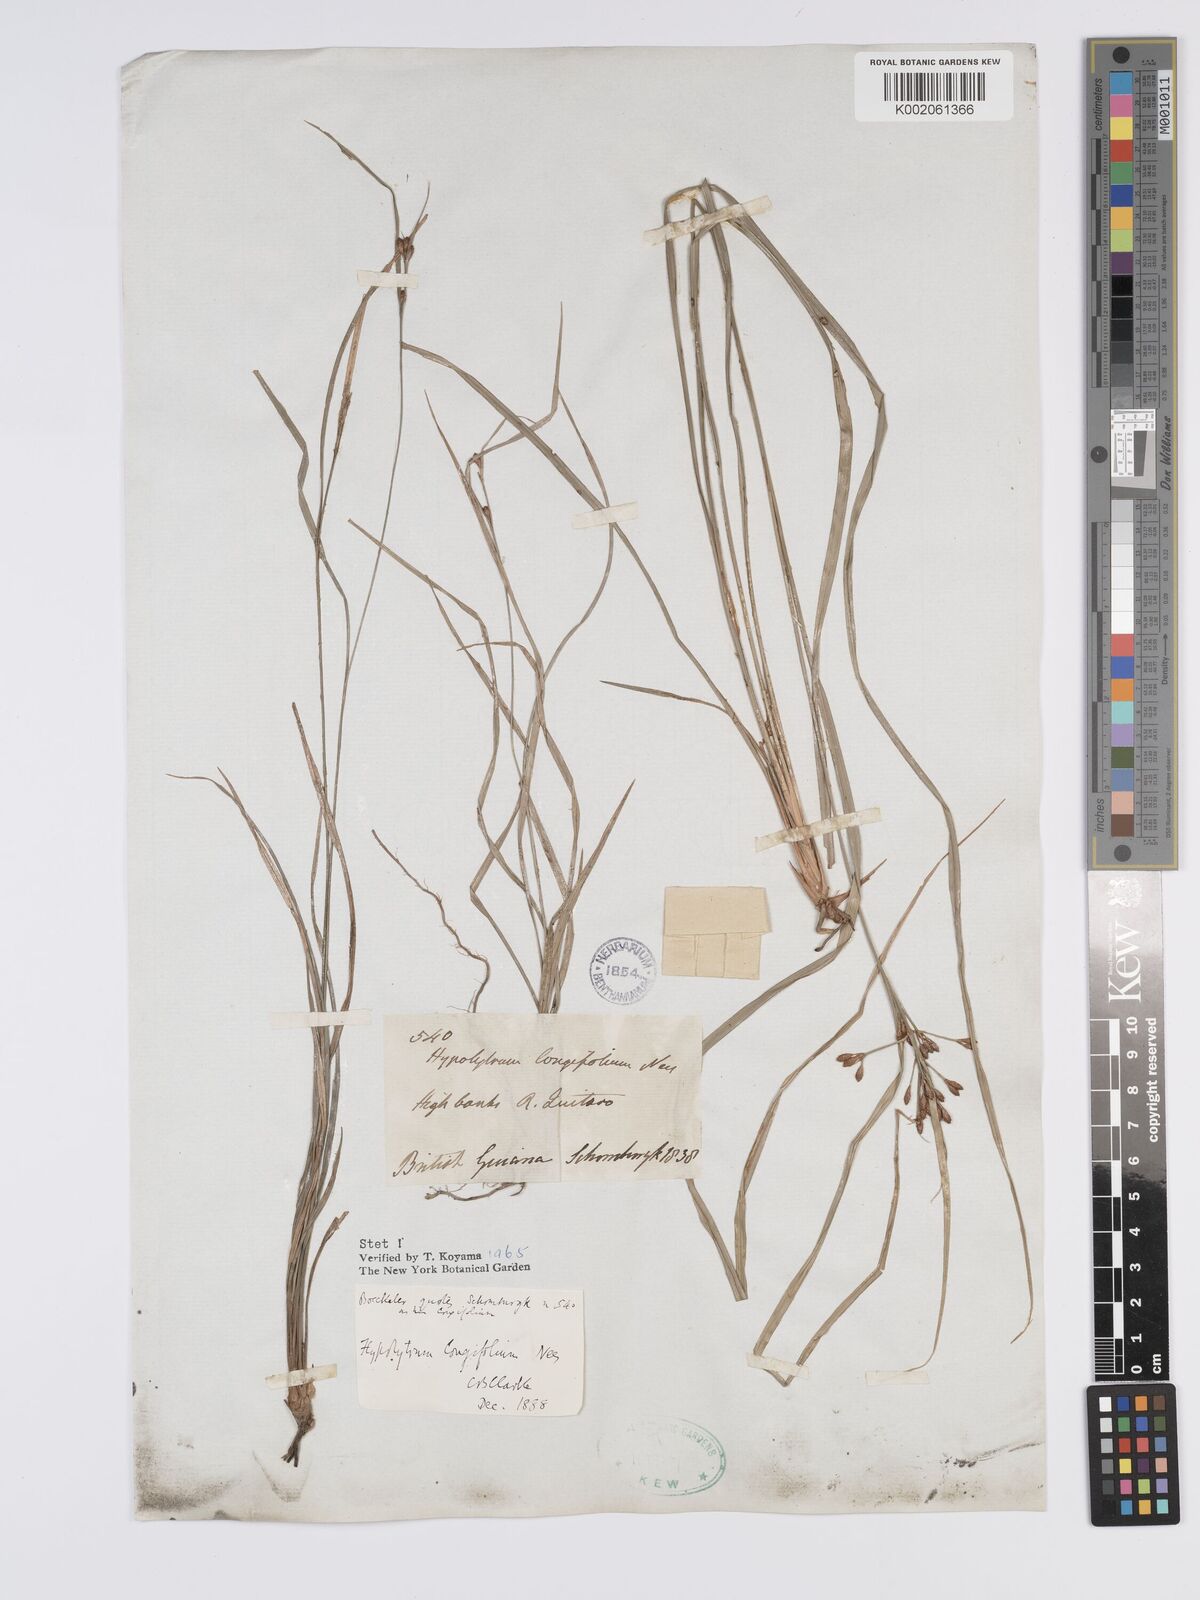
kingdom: Plantae
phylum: Tracheophyta
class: Liliopsida
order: Poales
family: Cyperaceae
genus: Hypolytrum
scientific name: Hypolytrum longifolium
